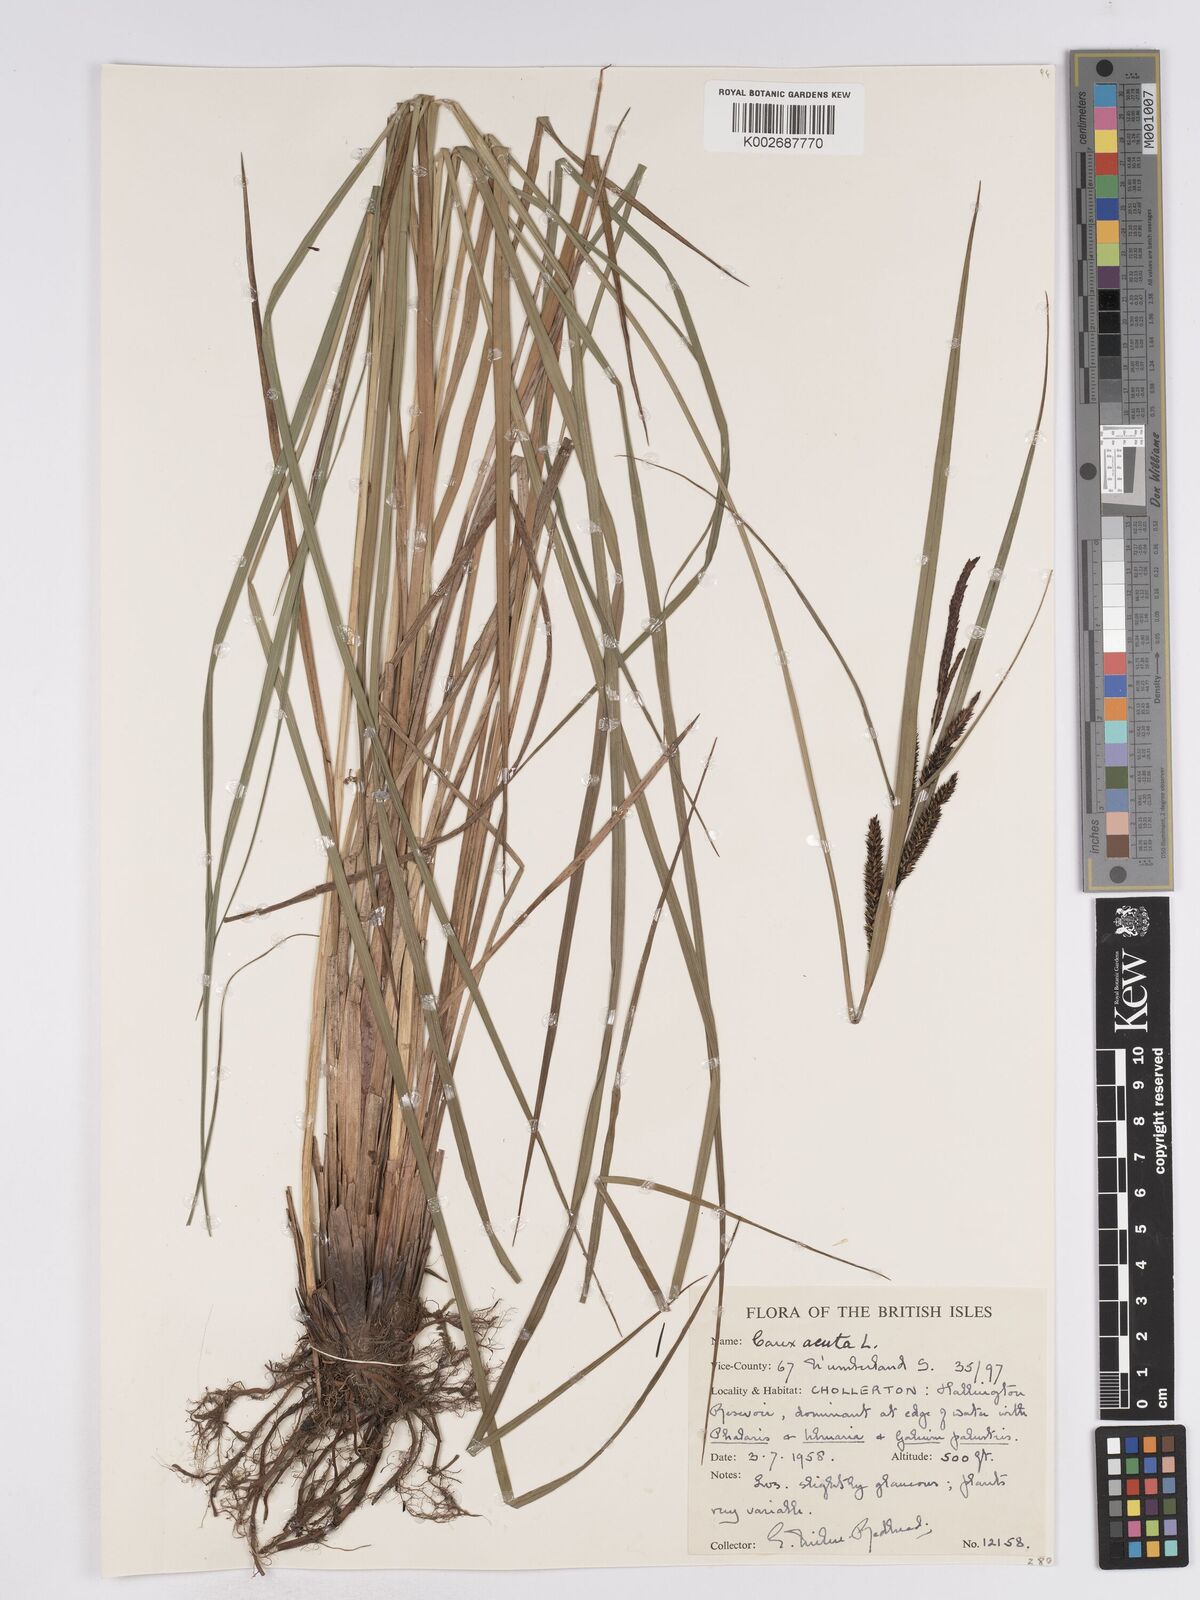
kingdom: Plantae
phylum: Tracheophyta
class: Liliopsida
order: Poales
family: Cyperaceae
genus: Carex
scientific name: Carex acuta
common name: Slender tufted-sedge
